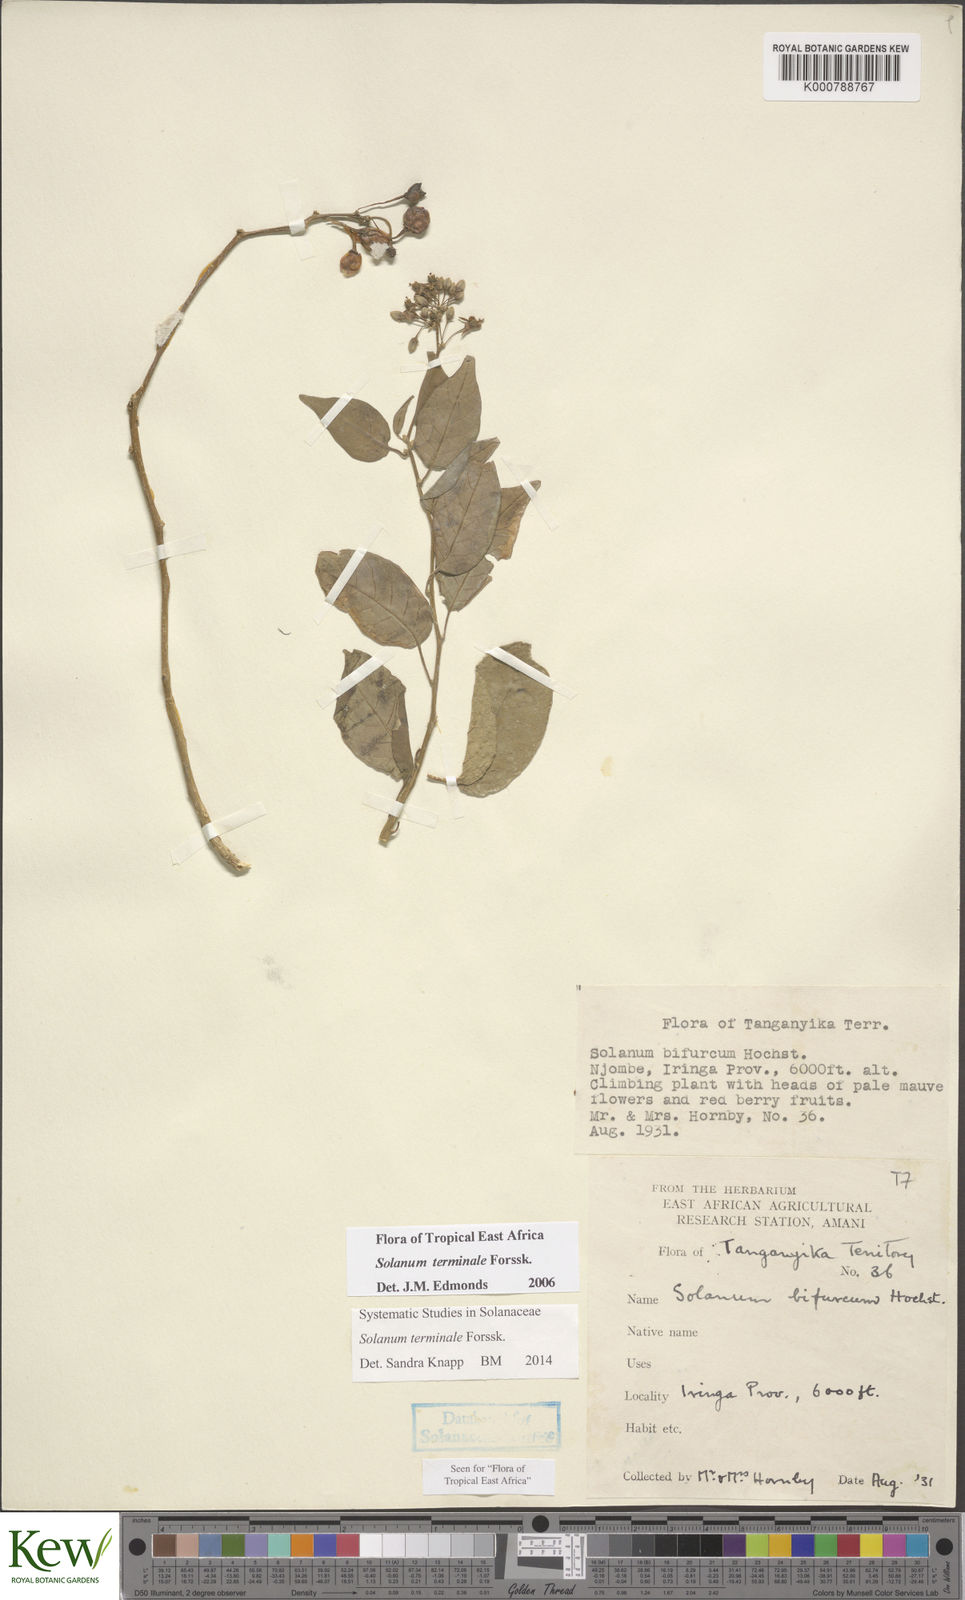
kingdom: Plantae
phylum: Tracheophyta
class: Magnoliopsida
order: Solanales
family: Solanaceae
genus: Solanum
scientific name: Solanum terminale
